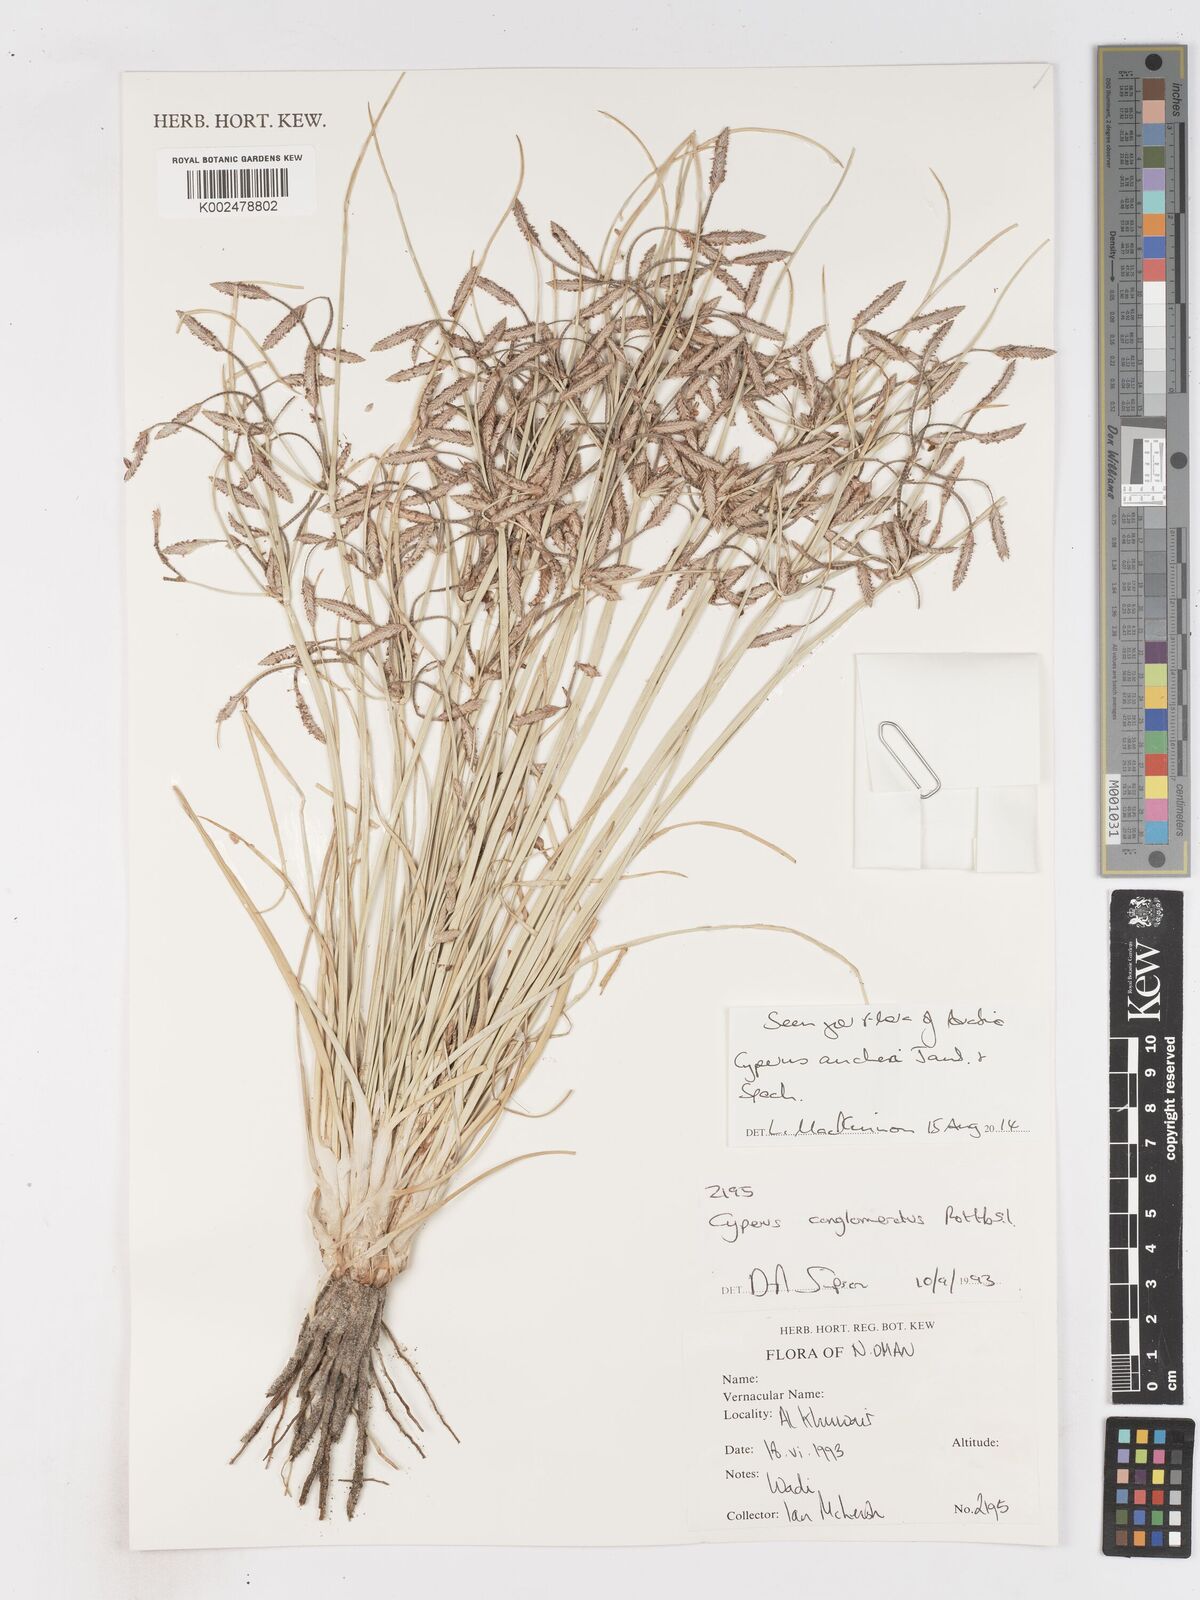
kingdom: Plantae
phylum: Tracheophyta
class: Liliopsida
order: Poales
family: Cyperaceae
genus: Cyperus
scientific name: Cyperus aucheri
